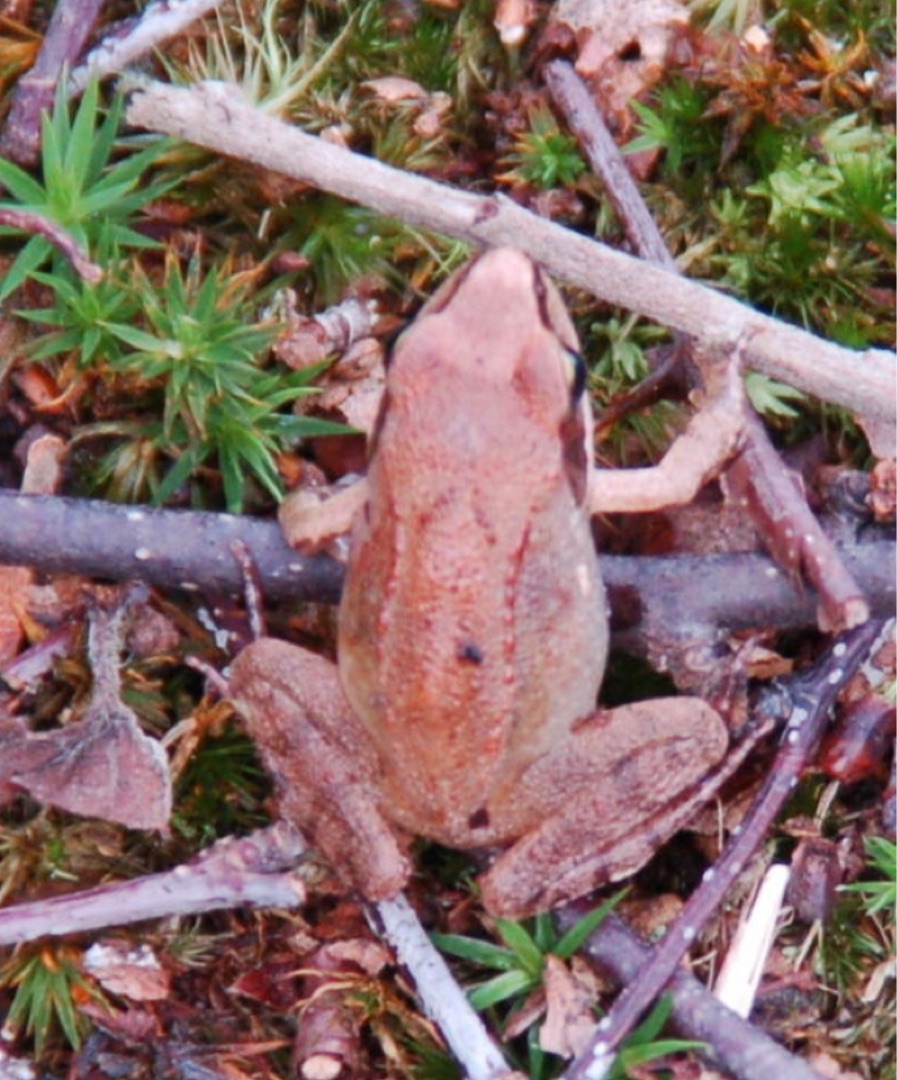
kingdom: Animalia
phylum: Chordata
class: Amphibia
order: Anura
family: Ranidae
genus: Rana
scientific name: Rana dalmatina
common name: Springfrø
